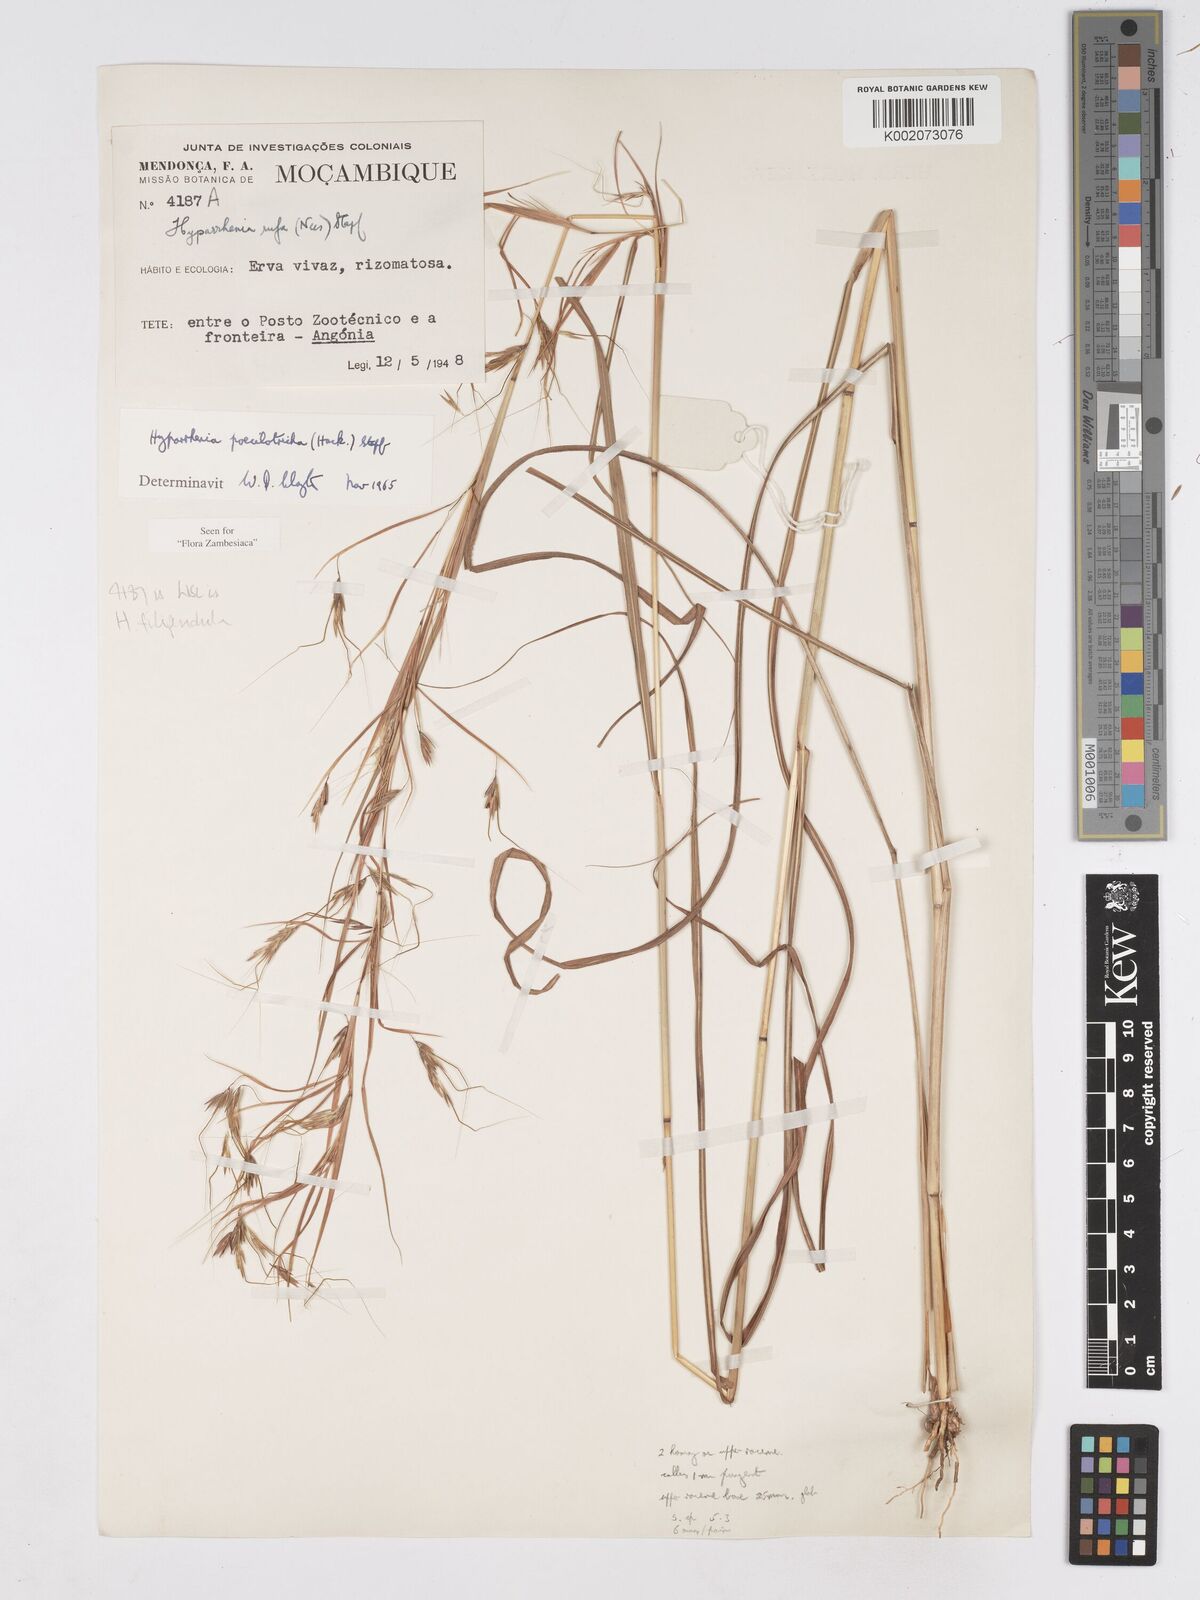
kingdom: Plantae
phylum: Tracheophyta
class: Liliopsida
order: Poales
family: Poaceae
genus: Hyparrhenia
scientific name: Hyparrhenia poecilotricha
